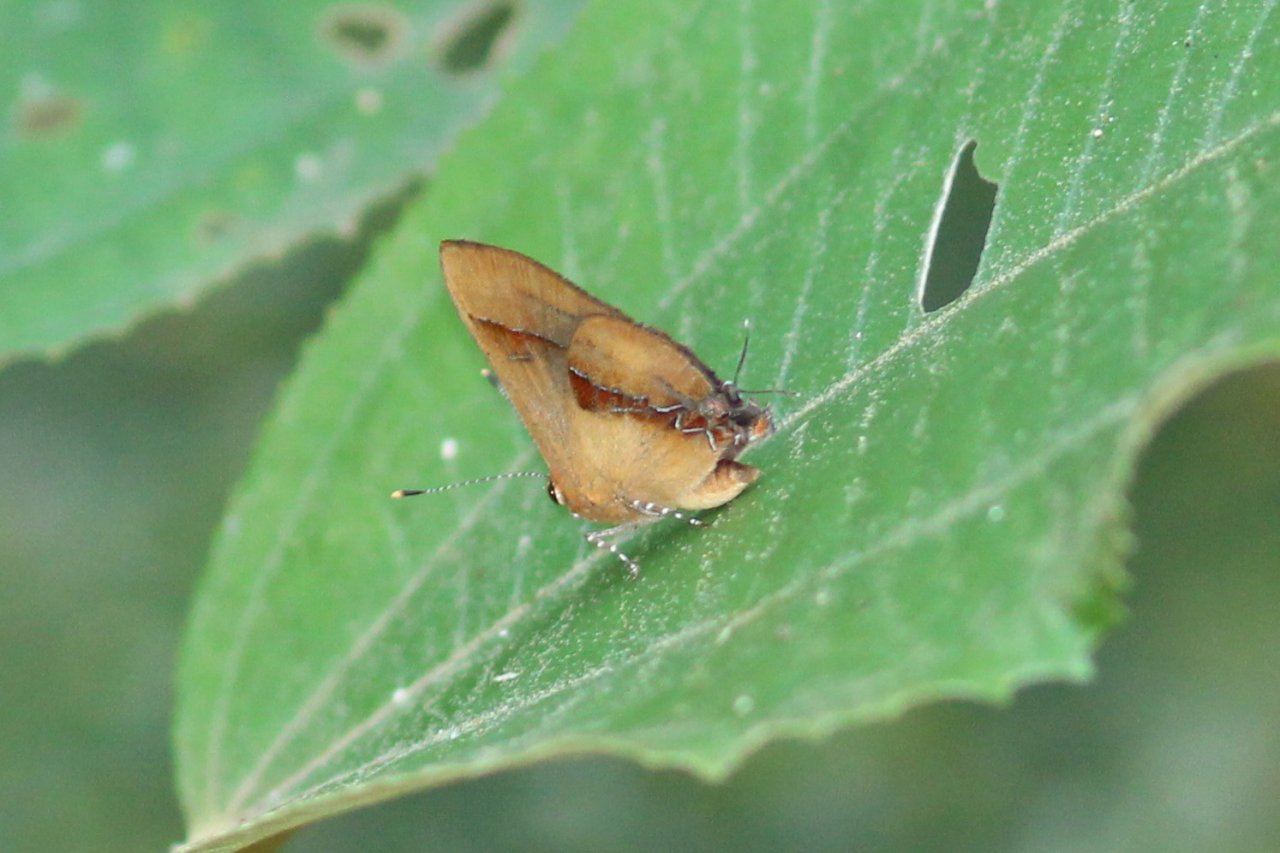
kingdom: Animalia
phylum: Arthropoda
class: Insecta
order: Lepidoptera
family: Lycaenidae
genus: Thecla
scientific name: Thecla demonassa
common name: Shining Groundstreak
